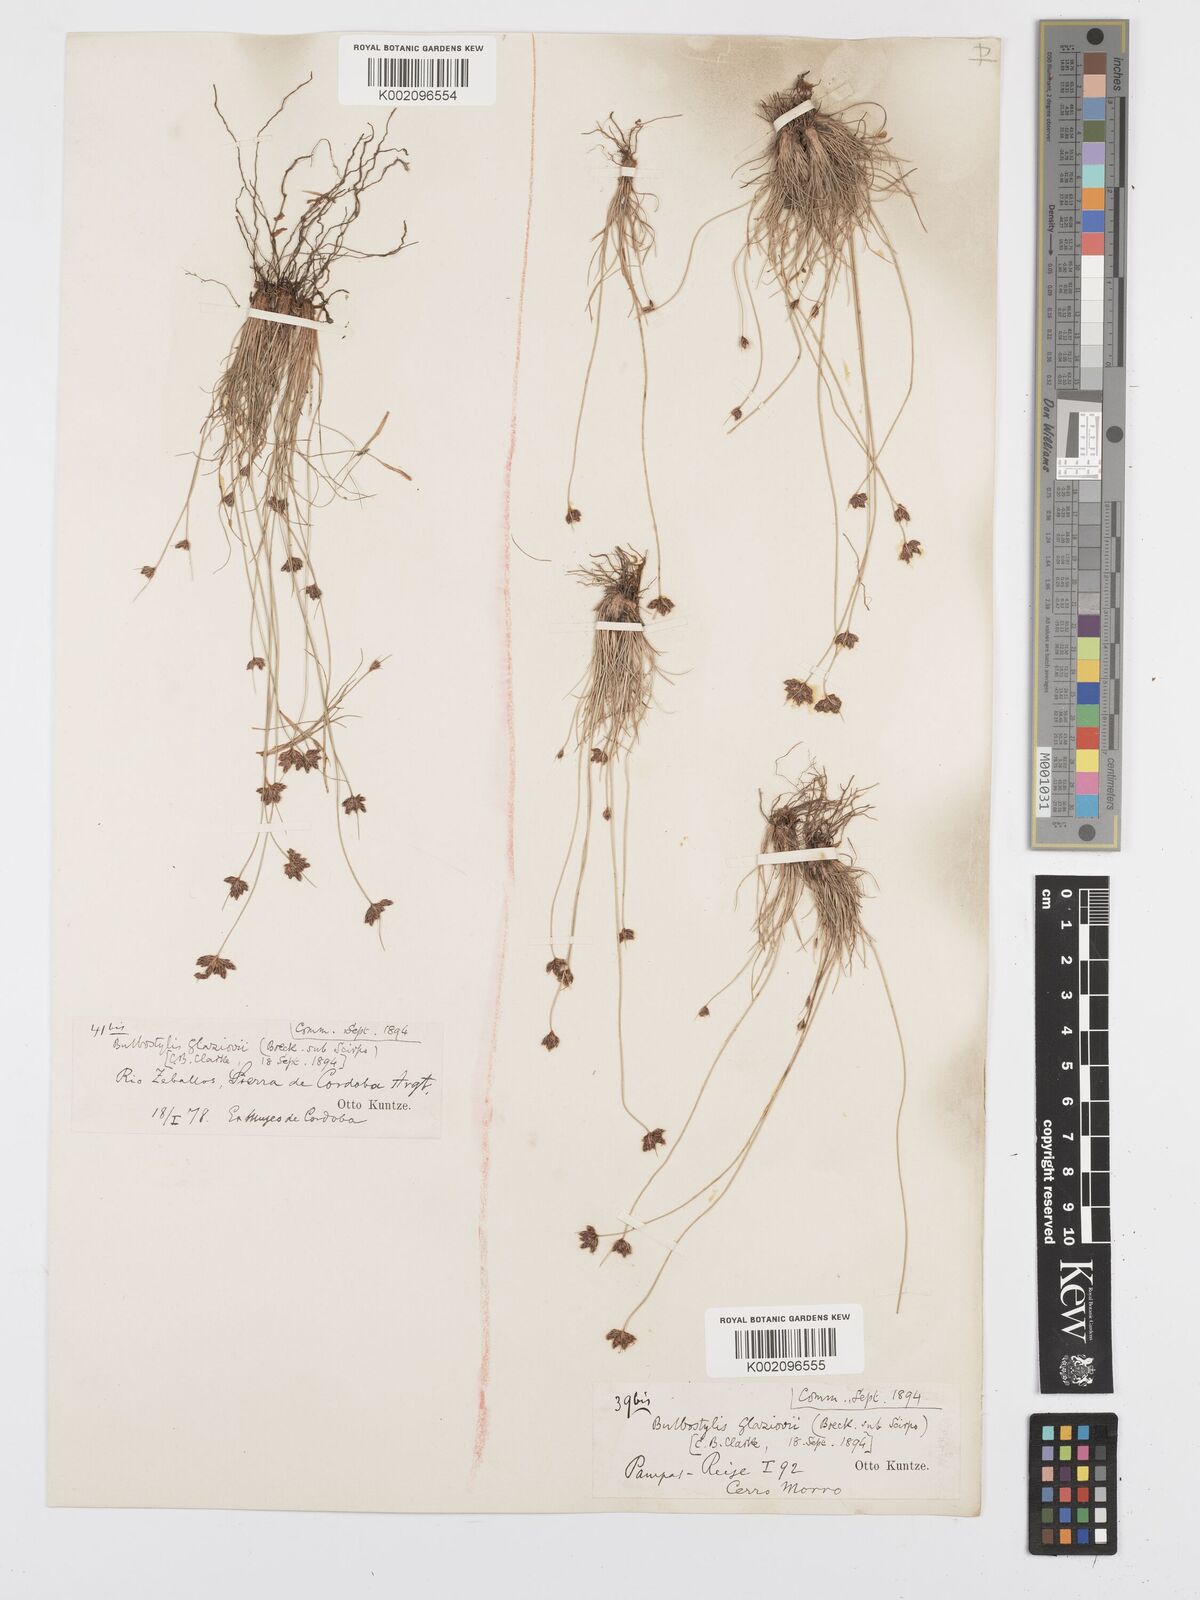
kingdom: Plantae
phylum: Tracheophyta
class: Liliopsida
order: Poales
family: Cyperaceae
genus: Bulbostylis
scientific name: Bulbostylis juncoides
